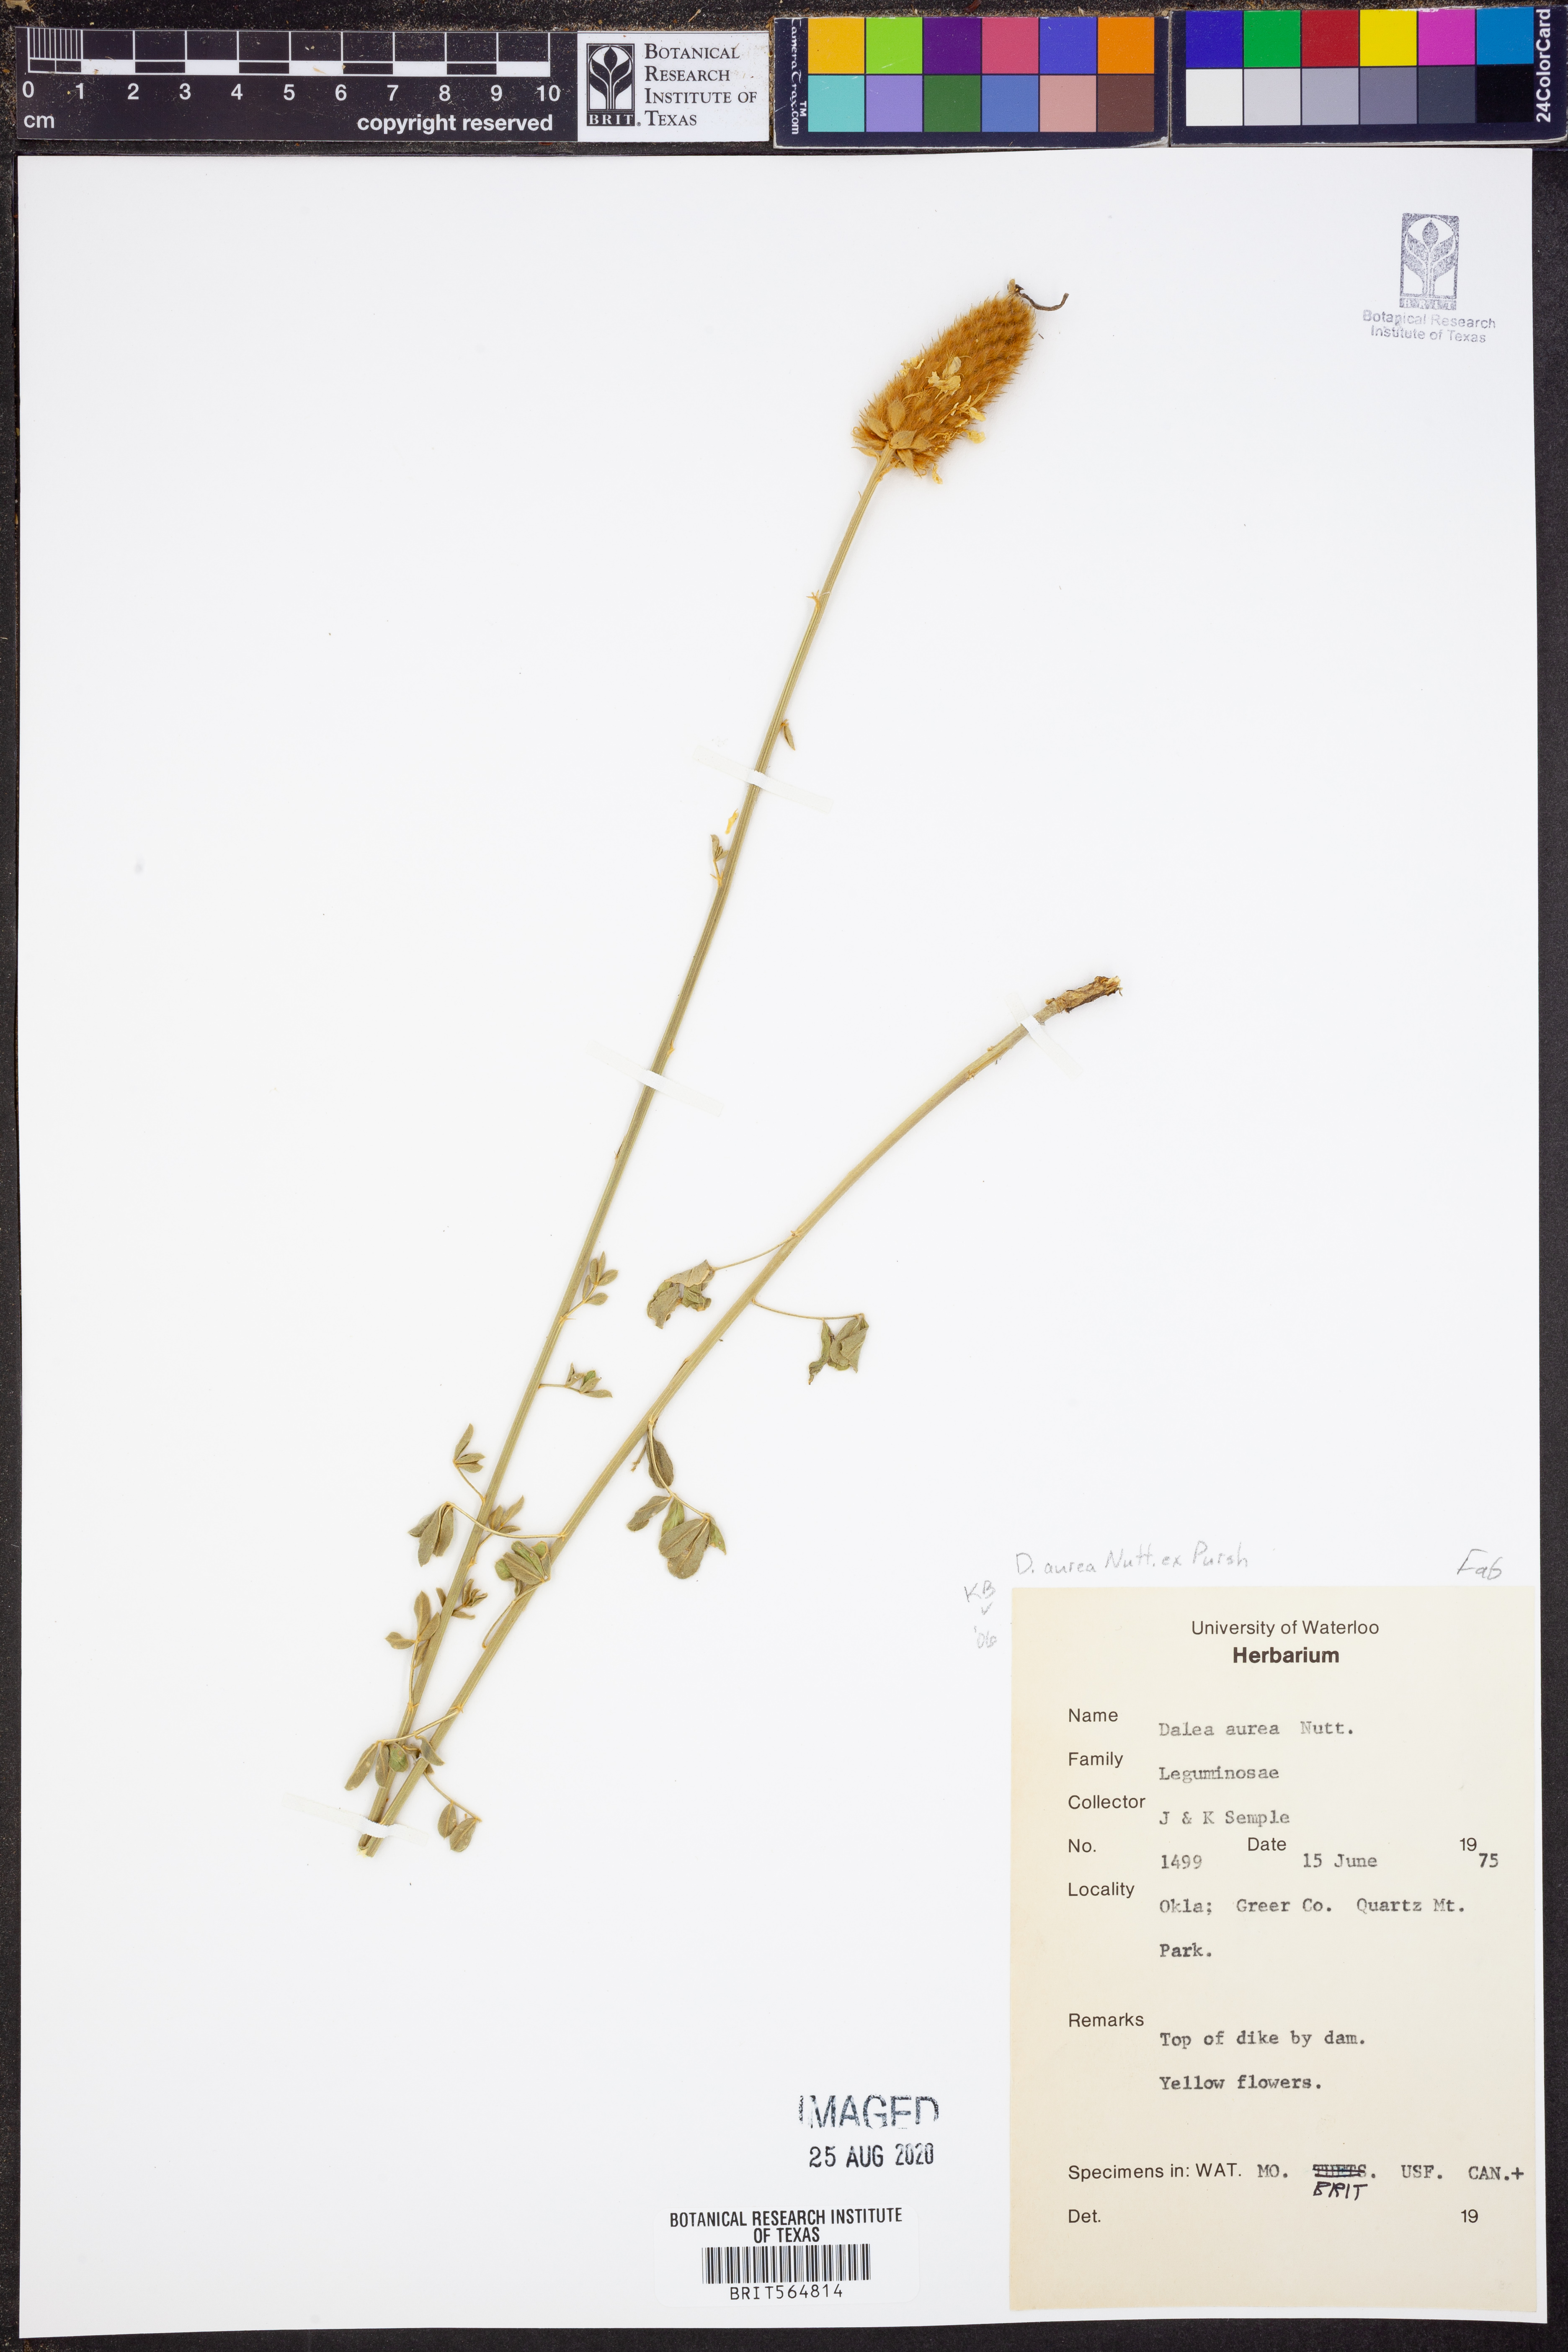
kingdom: Plantae
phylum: Tracheophyta
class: Magnoliopsida
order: Fabales
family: Fabaceae
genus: Dalea
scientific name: Dalea aurea
